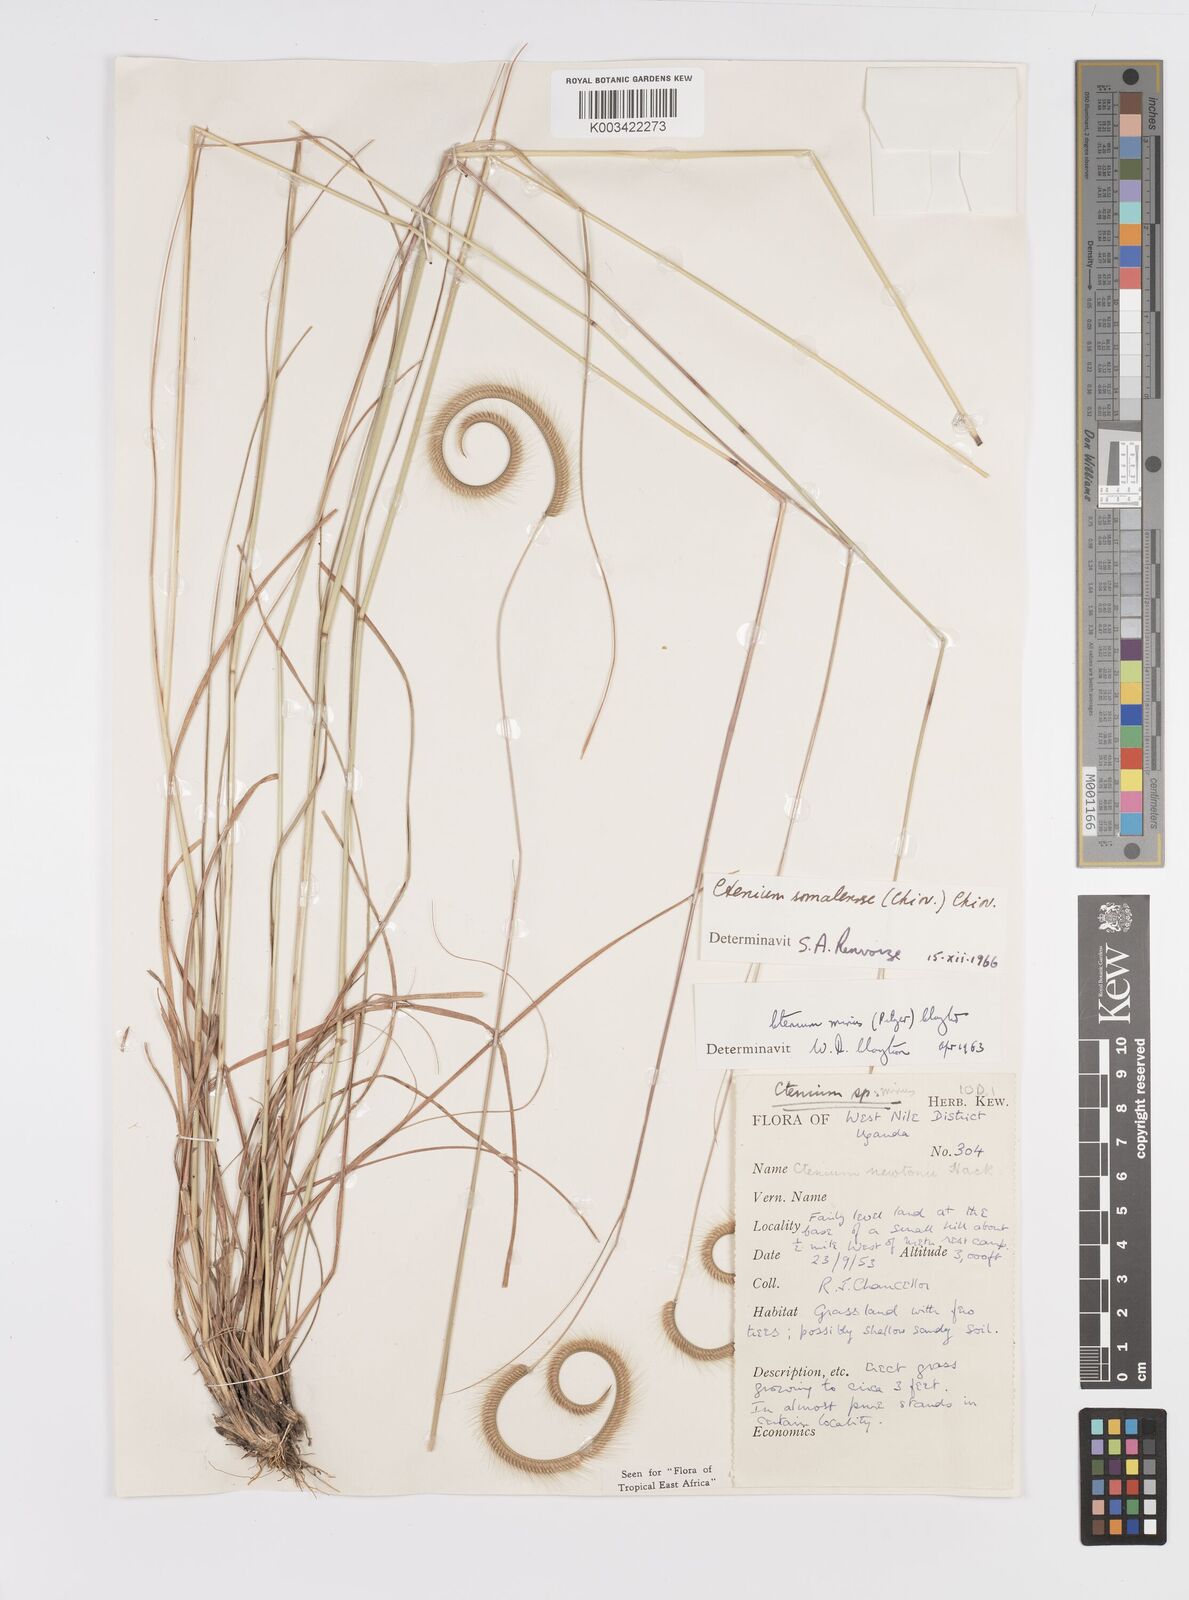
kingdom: Plantae
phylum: Tracheophyta
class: Liliopsida
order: Poales
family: Poaceae
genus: Ctenium
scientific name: Ctenium concinnum
